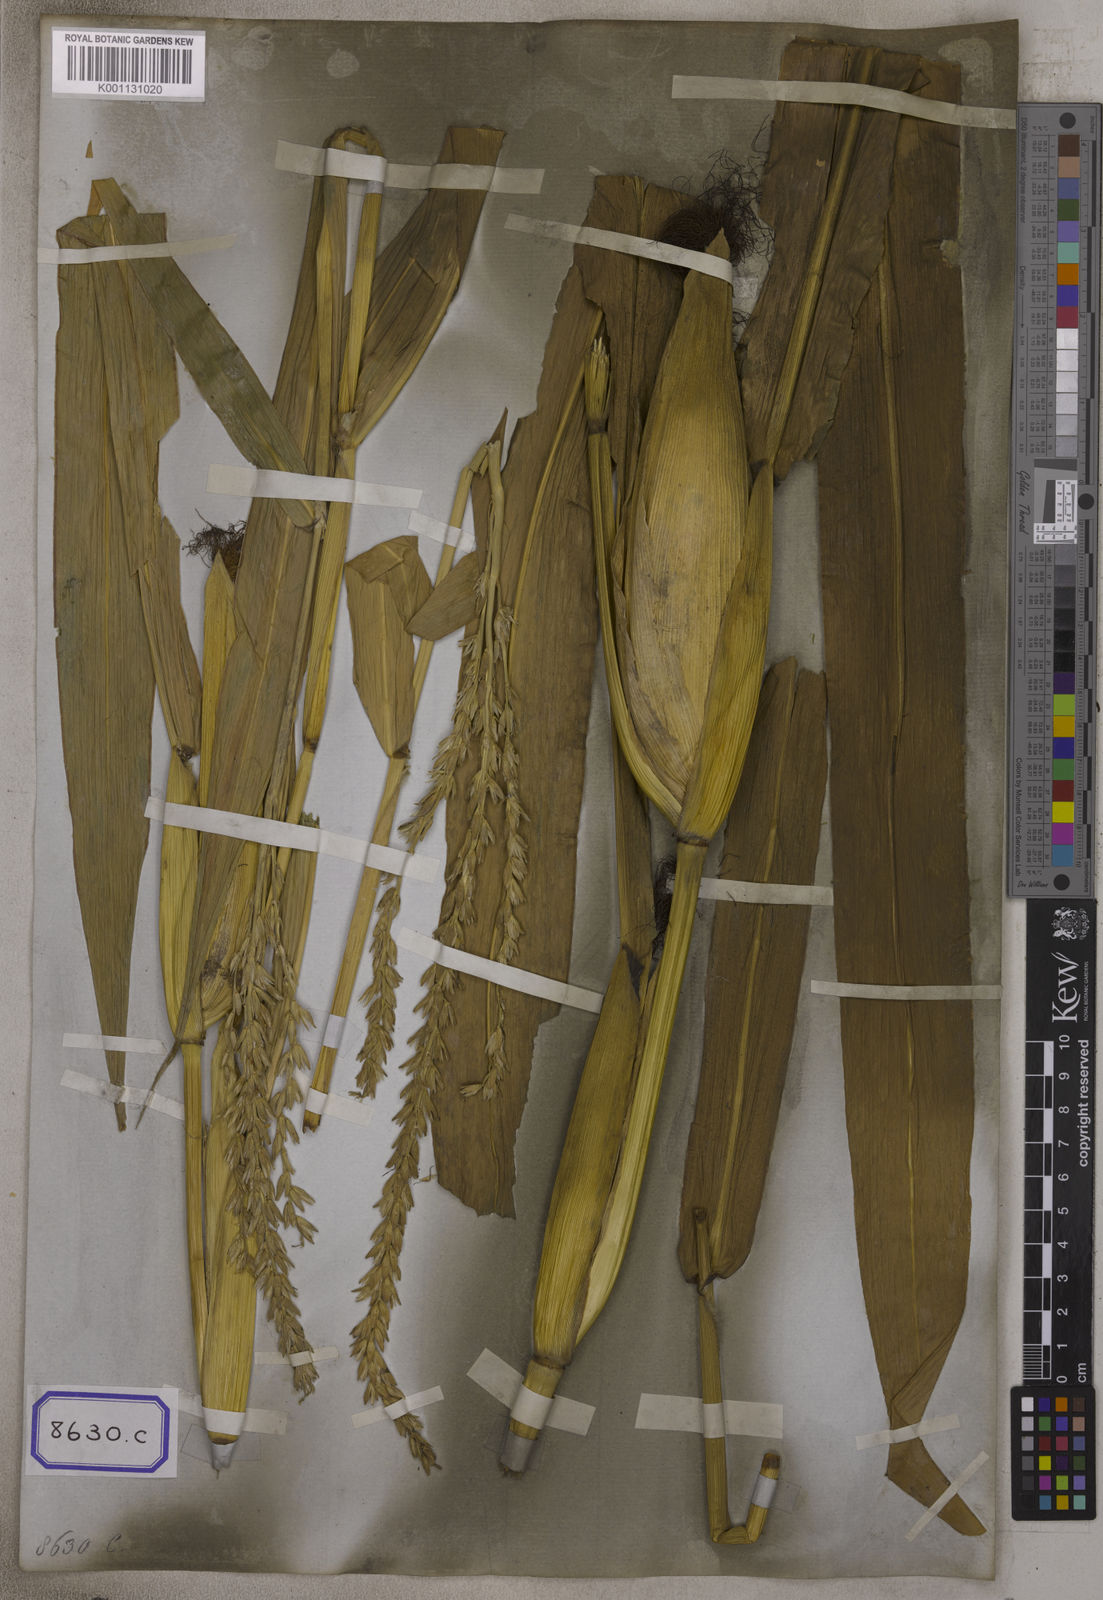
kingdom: Plantae
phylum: Tracheophyta
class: Liliopsida
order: Poales
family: Poaceae
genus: Zea
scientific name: Zea mays
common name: Maize
